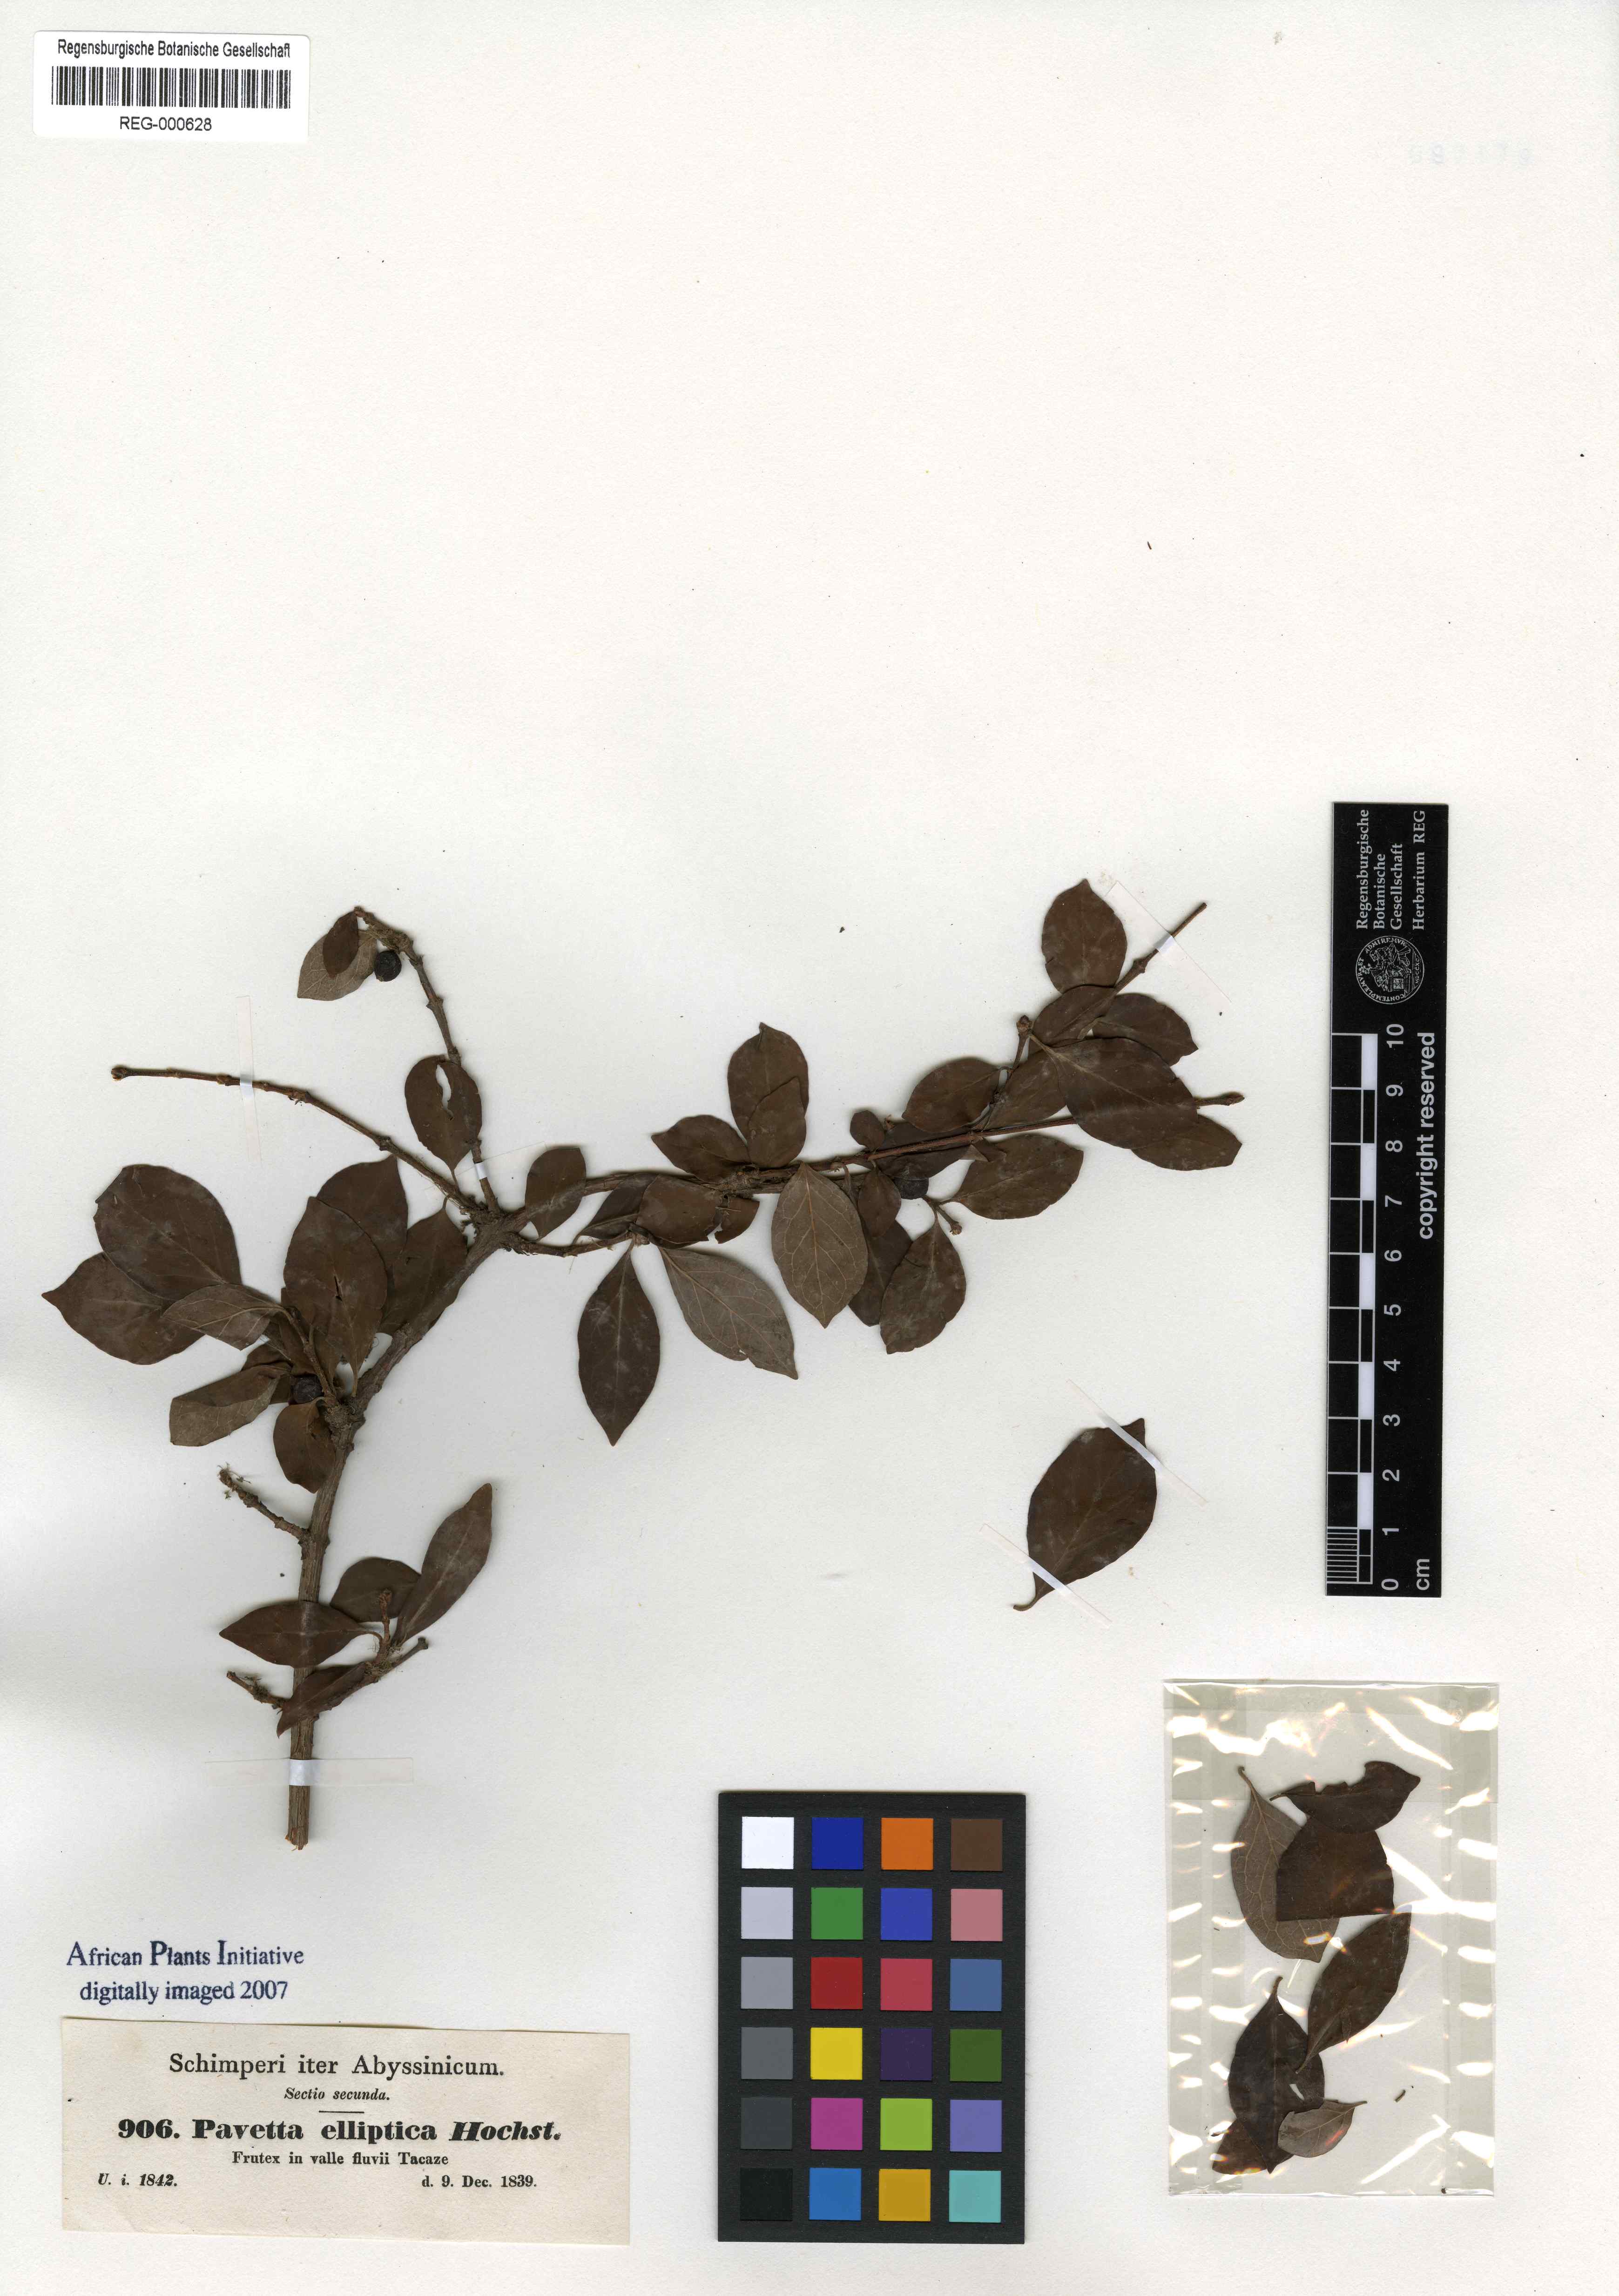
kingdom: Plantae
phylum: Tracheophyta
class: Magnoliopsida
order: Gentianales
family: Rubiaceae
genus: Feretia
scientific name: Feretia apodanthera
